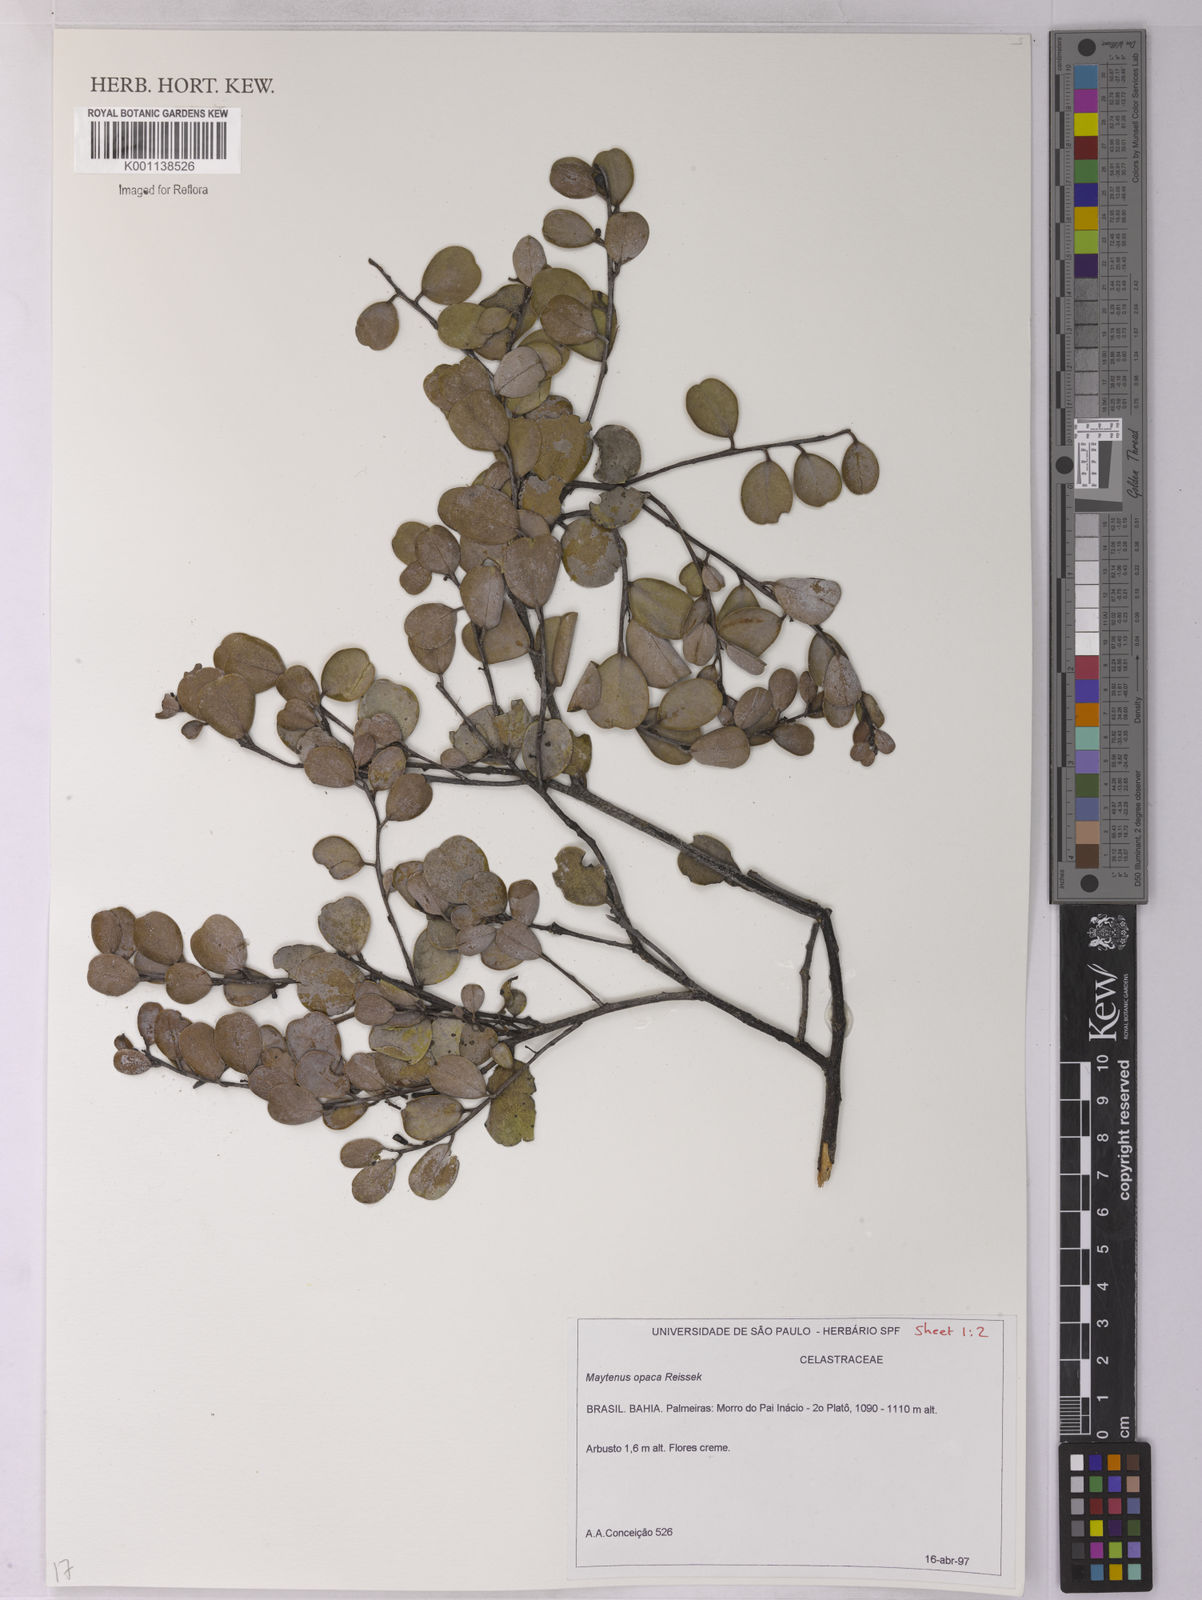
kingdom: Plantae
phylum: Tracheophyta
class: Magnoliopsida
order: Celastrales
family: Celastraceae
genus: Monteverdia
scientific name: Monteverdia opaca
